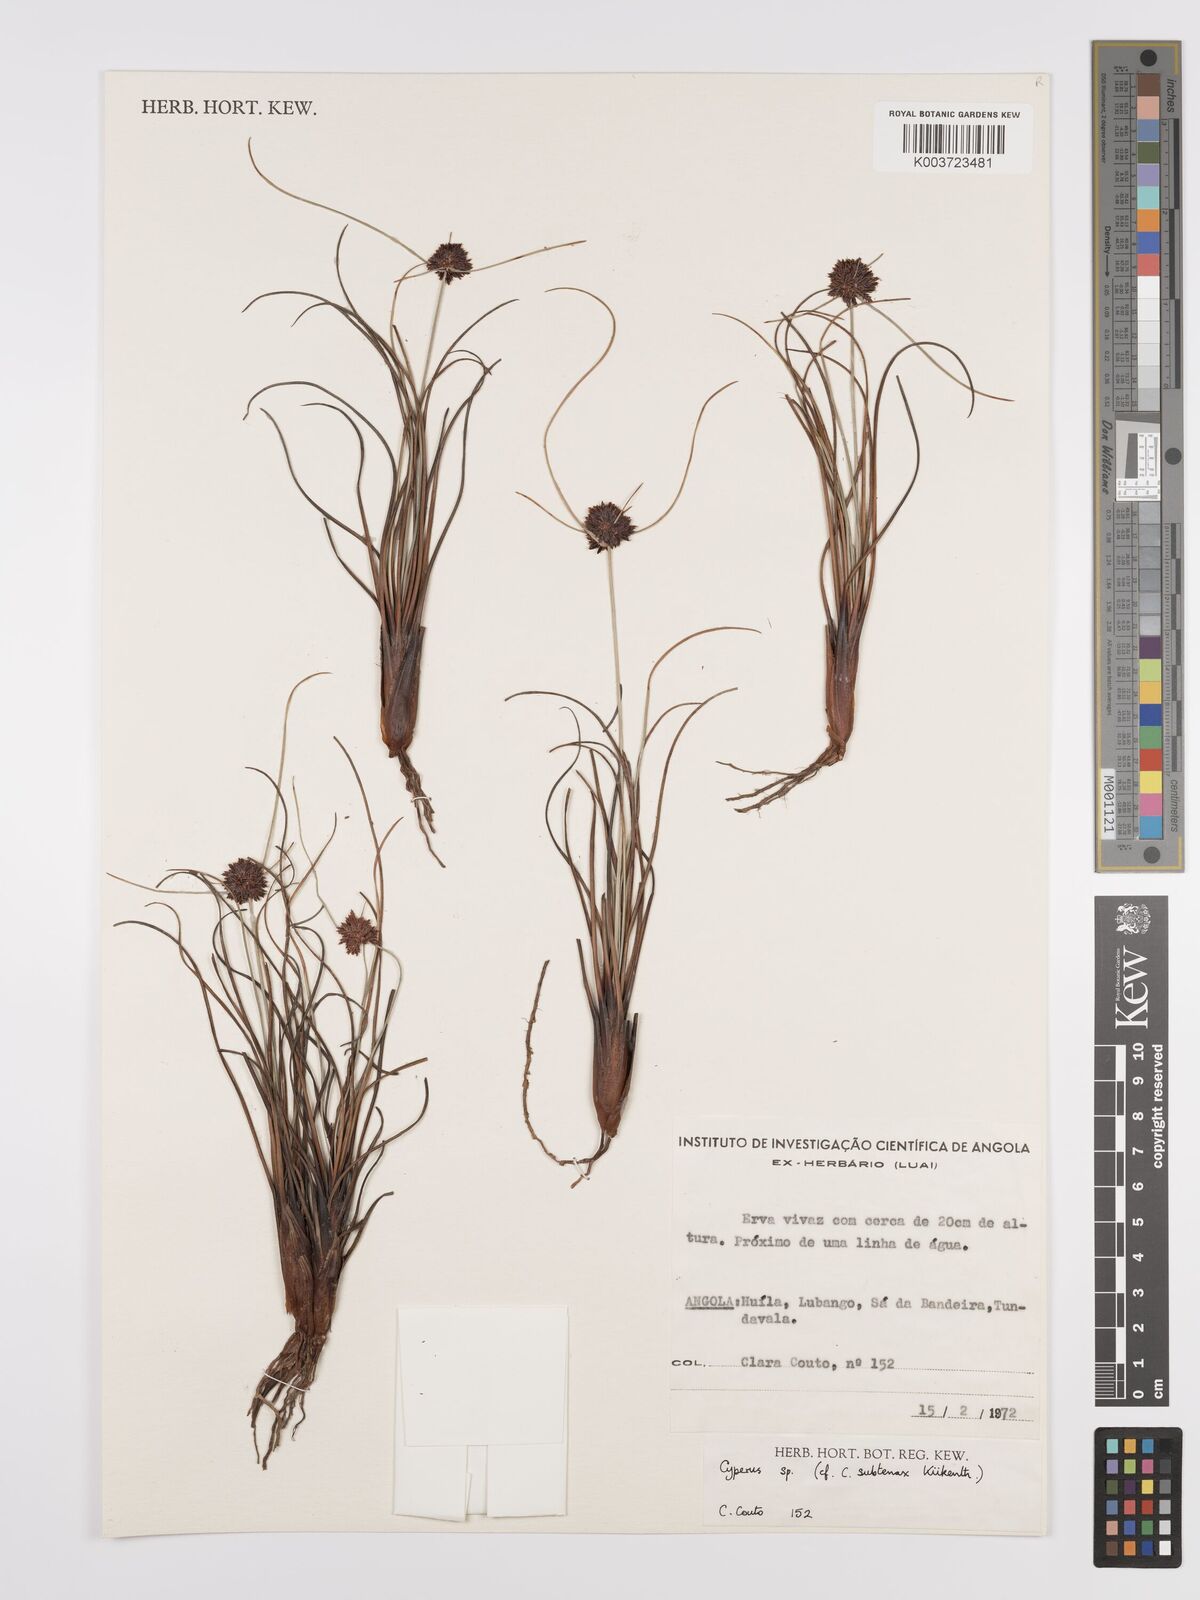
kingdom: Plantae
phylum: Tracheophyta
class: Liliopsida
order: Poales
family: Cyperaceae
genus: Cyperus
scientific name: Cyperus subtenax
